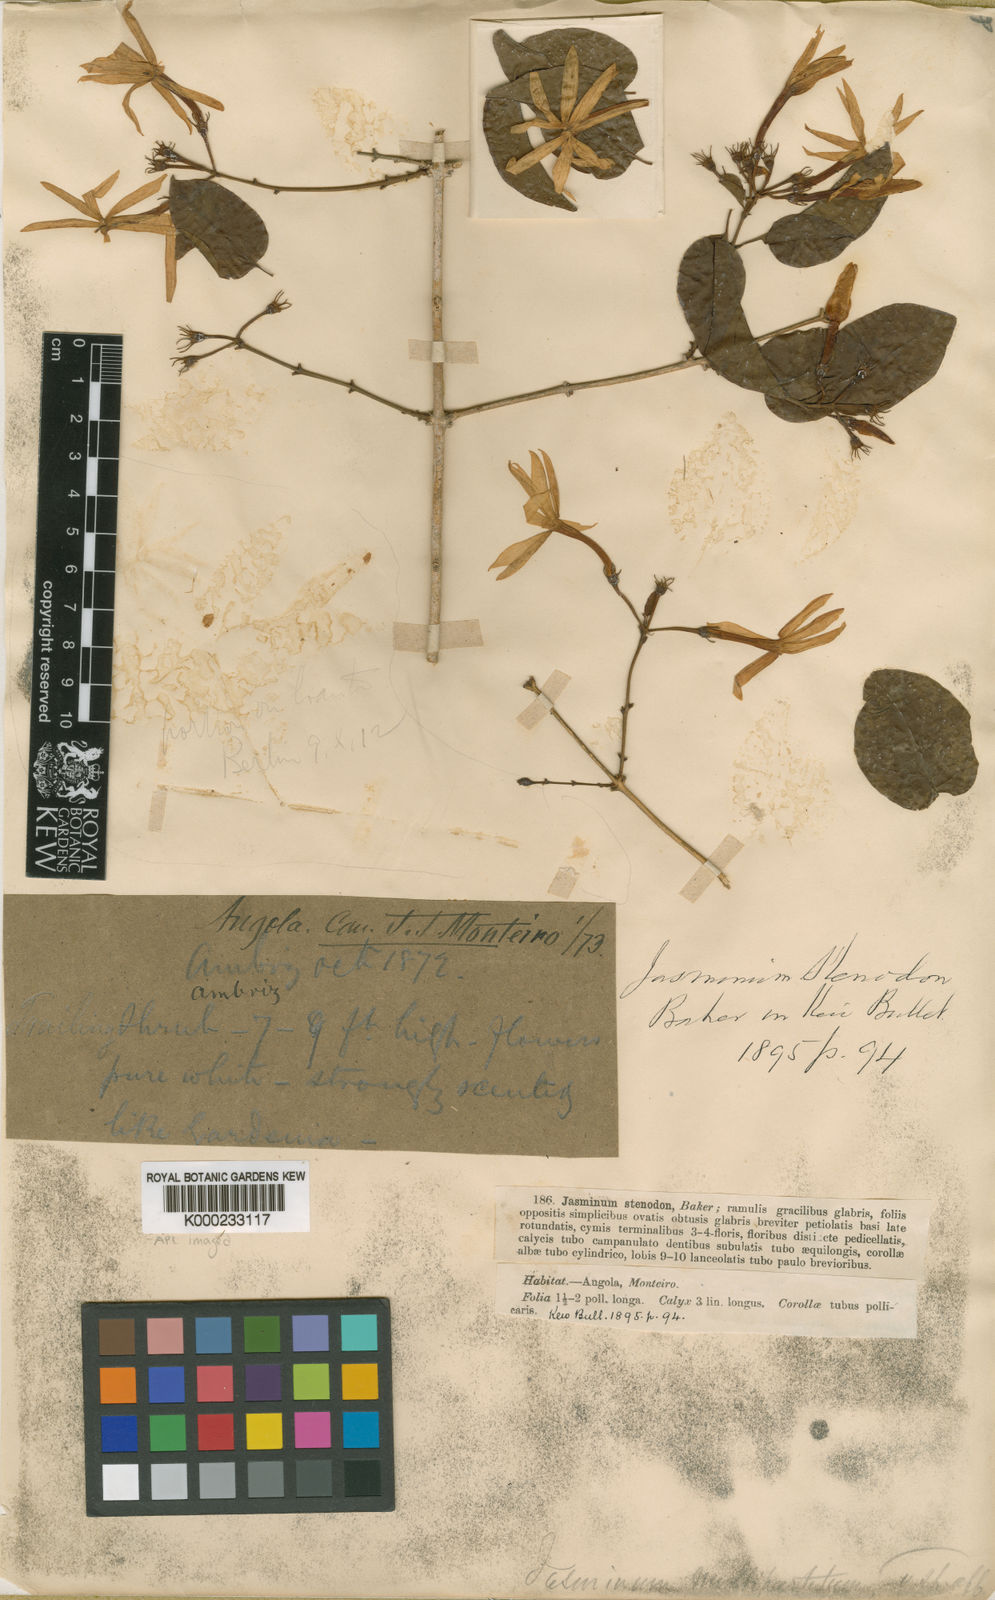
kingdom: Plantae
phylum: Tracheophyta
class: Magnoliopsida
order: Lamiales
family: Oleaceae
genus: Jasminum
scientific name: Jasminum angolense
